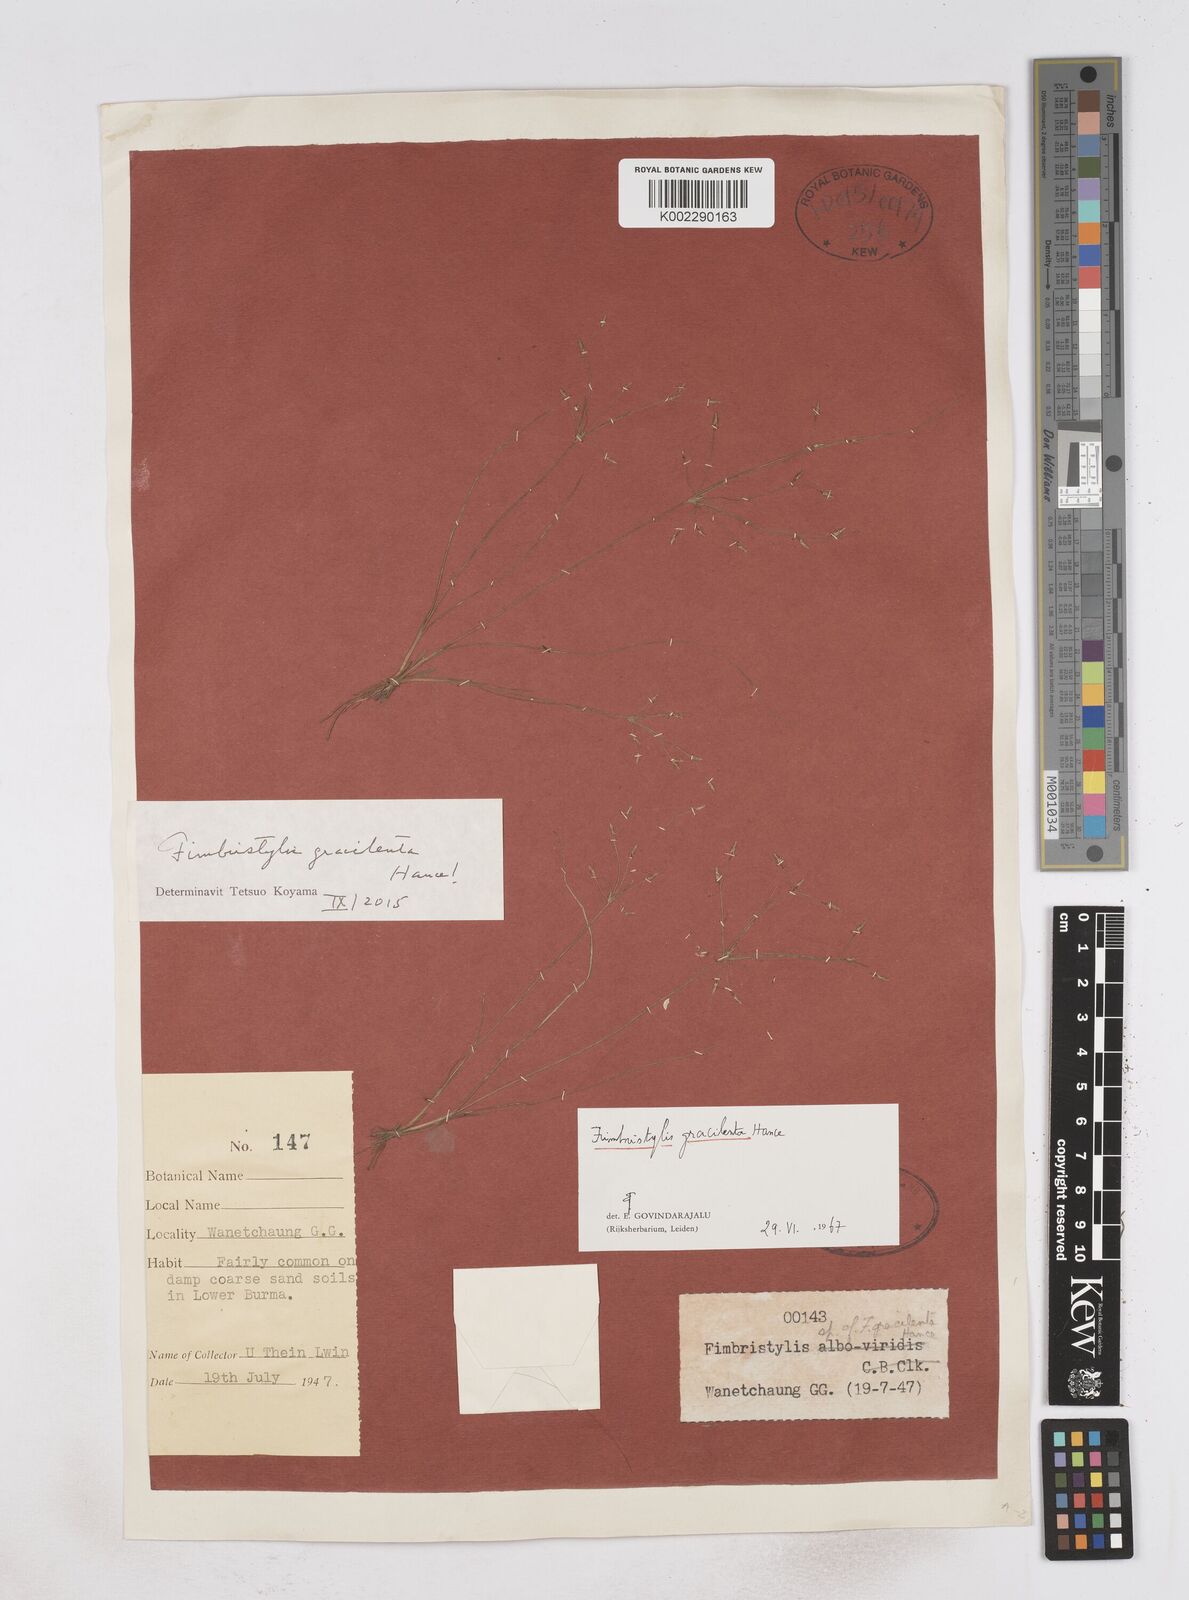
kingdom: Plantae
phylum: Tracheophyta
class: Liliopsida
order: Poales
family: Cyperaceae
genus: Fimbristylis
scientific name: Fimbristylis gracilenta
